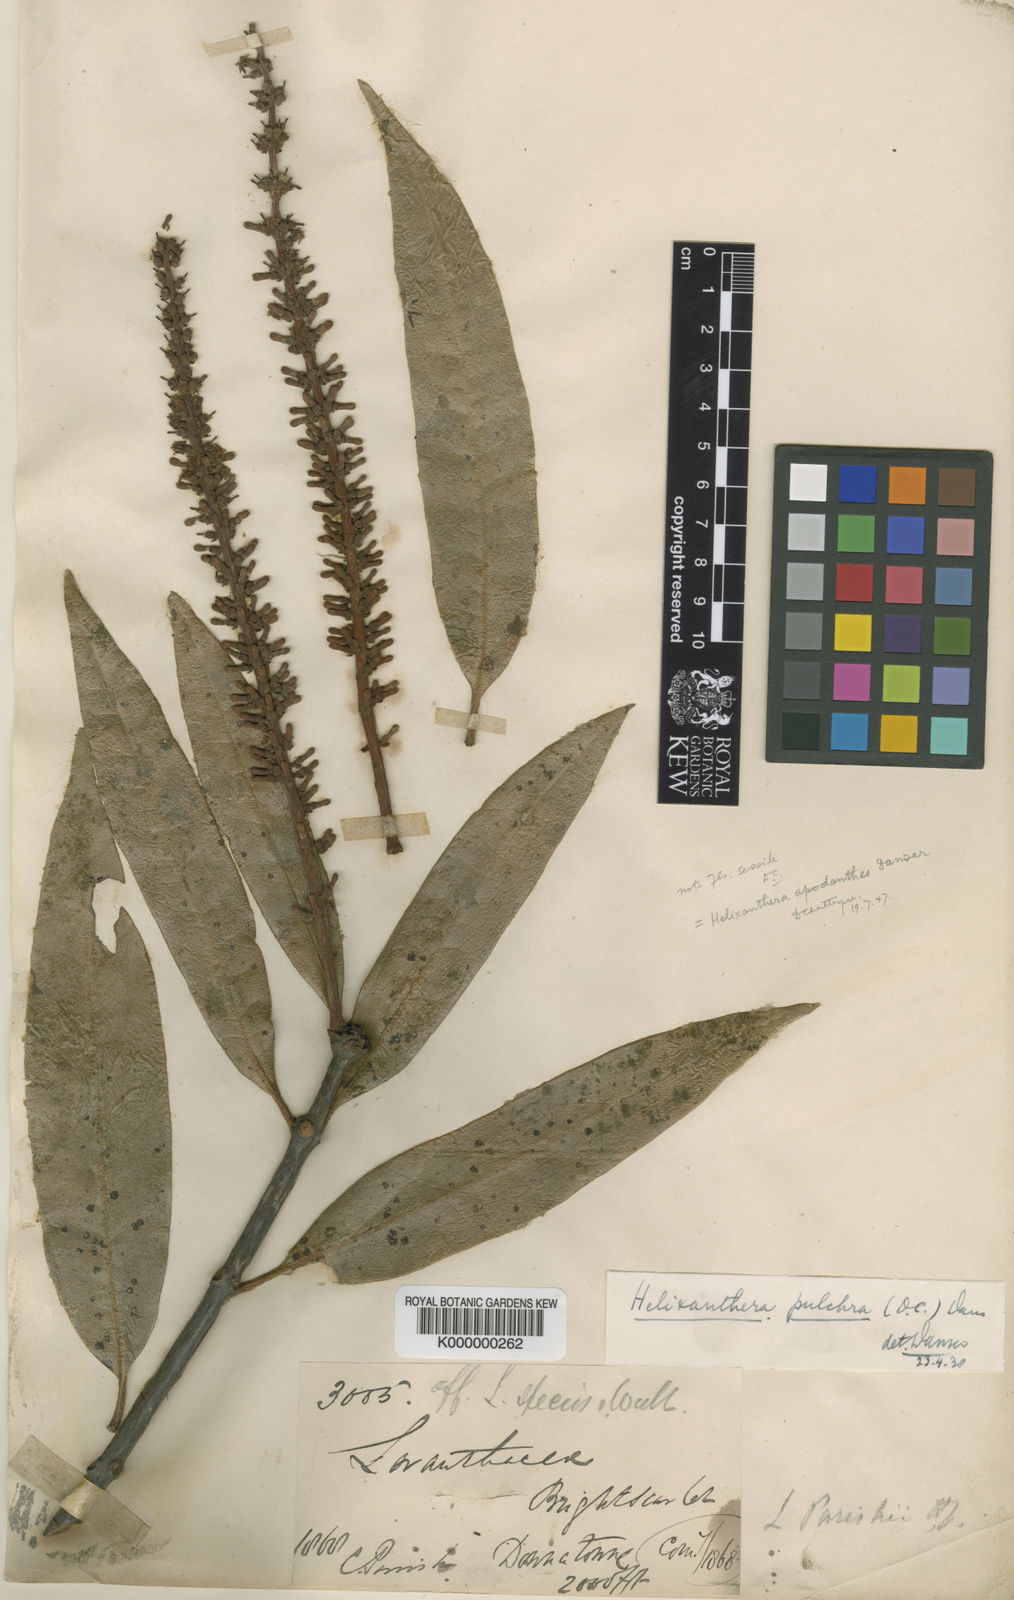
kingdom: Plantae
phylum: Tracheophyta
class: Magnoliopsida
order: Santalales
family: Loranthaceae
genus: Helixanthera
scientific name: Helixanthera pulchra
